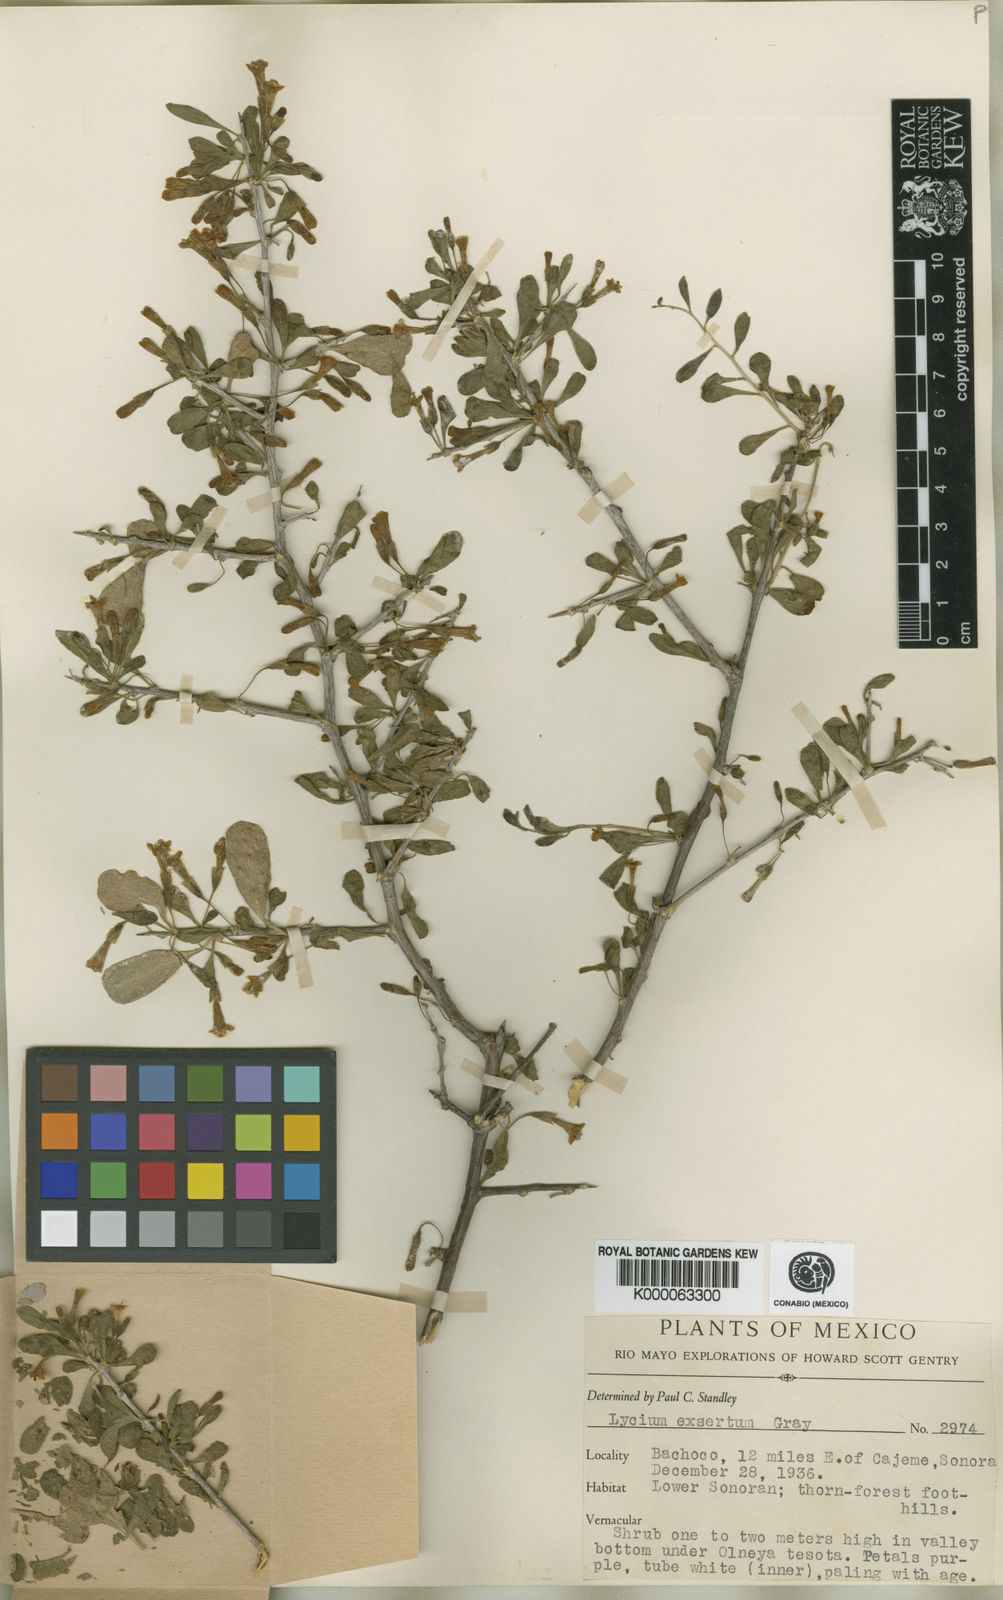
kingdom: Plantae
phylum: Tracheophyta
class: Magnoliopsida
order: Solanales
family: Solanaceae
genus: Lycium
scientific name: Lycium exsertum
